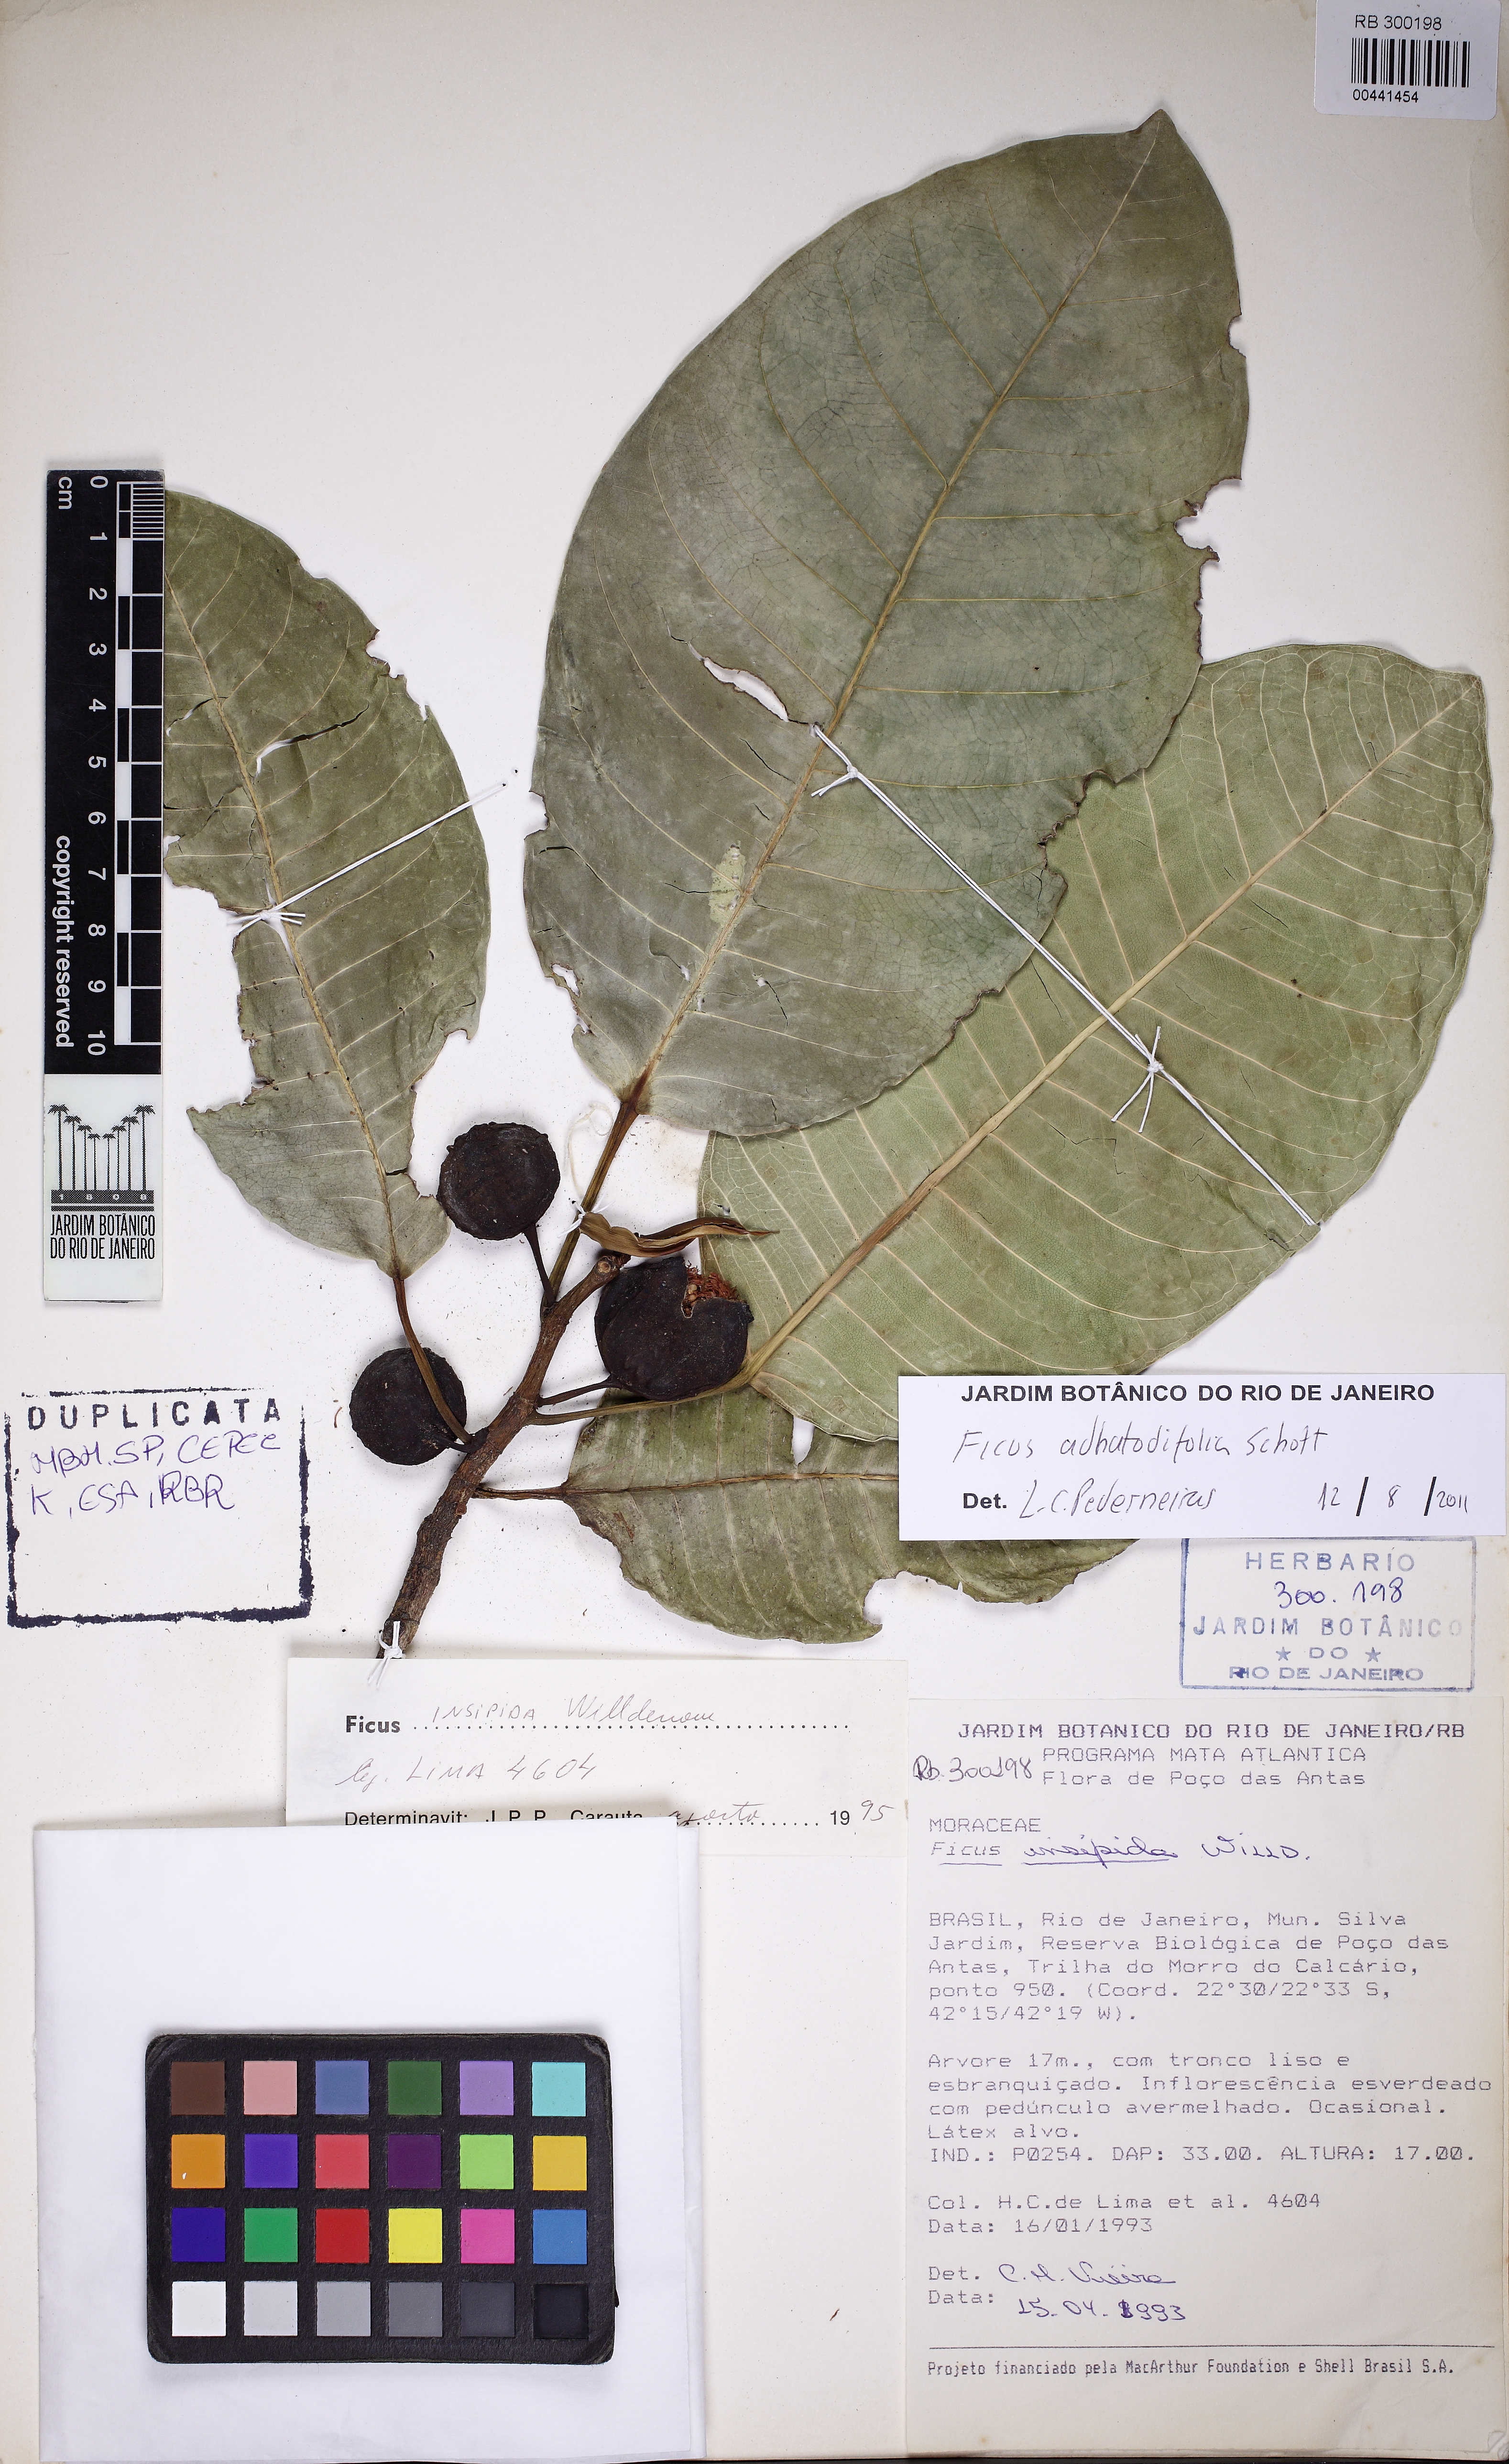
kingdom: Plantae
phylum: Tracheophyta
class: Magnoliopsida
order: Rosales
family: Moraceae
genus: Ficus
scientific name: Ficus adhatodifolia
